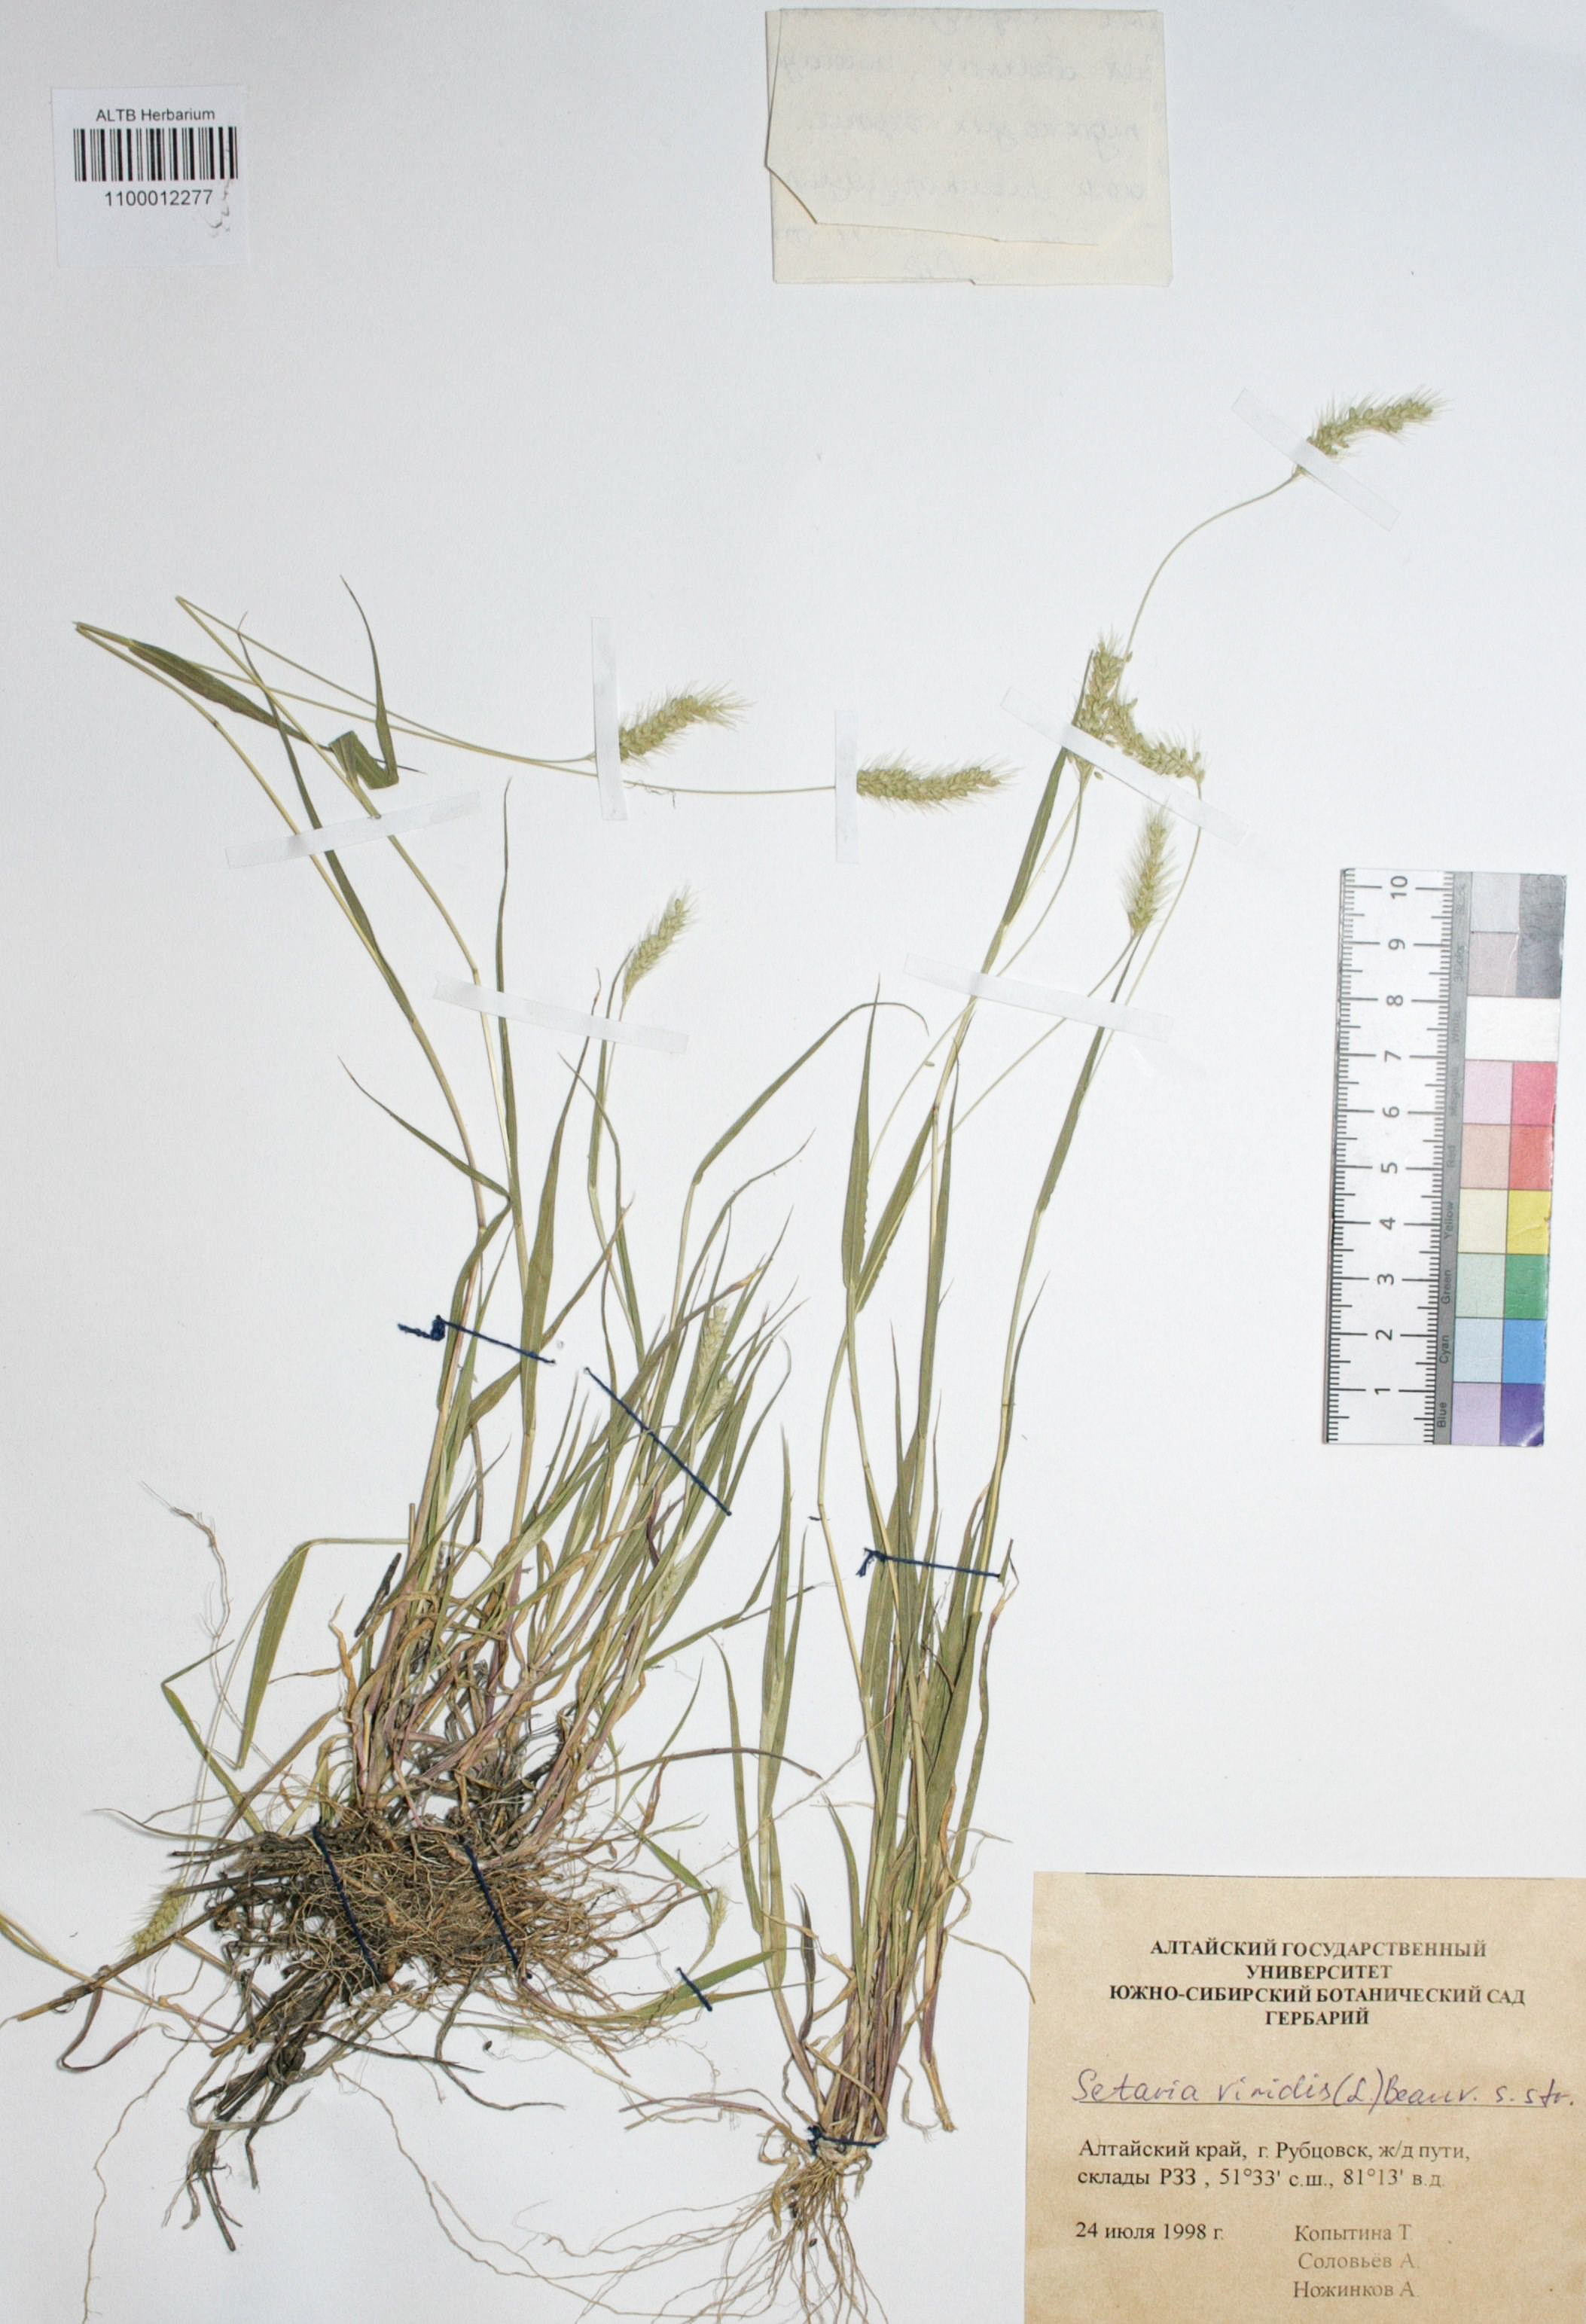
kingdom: Plantae
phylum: Tracheophyta
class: Liliopsida
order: Poales
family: Poaceae
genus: Setaria
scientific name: Setaria viridis
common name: Green bristlegrass
